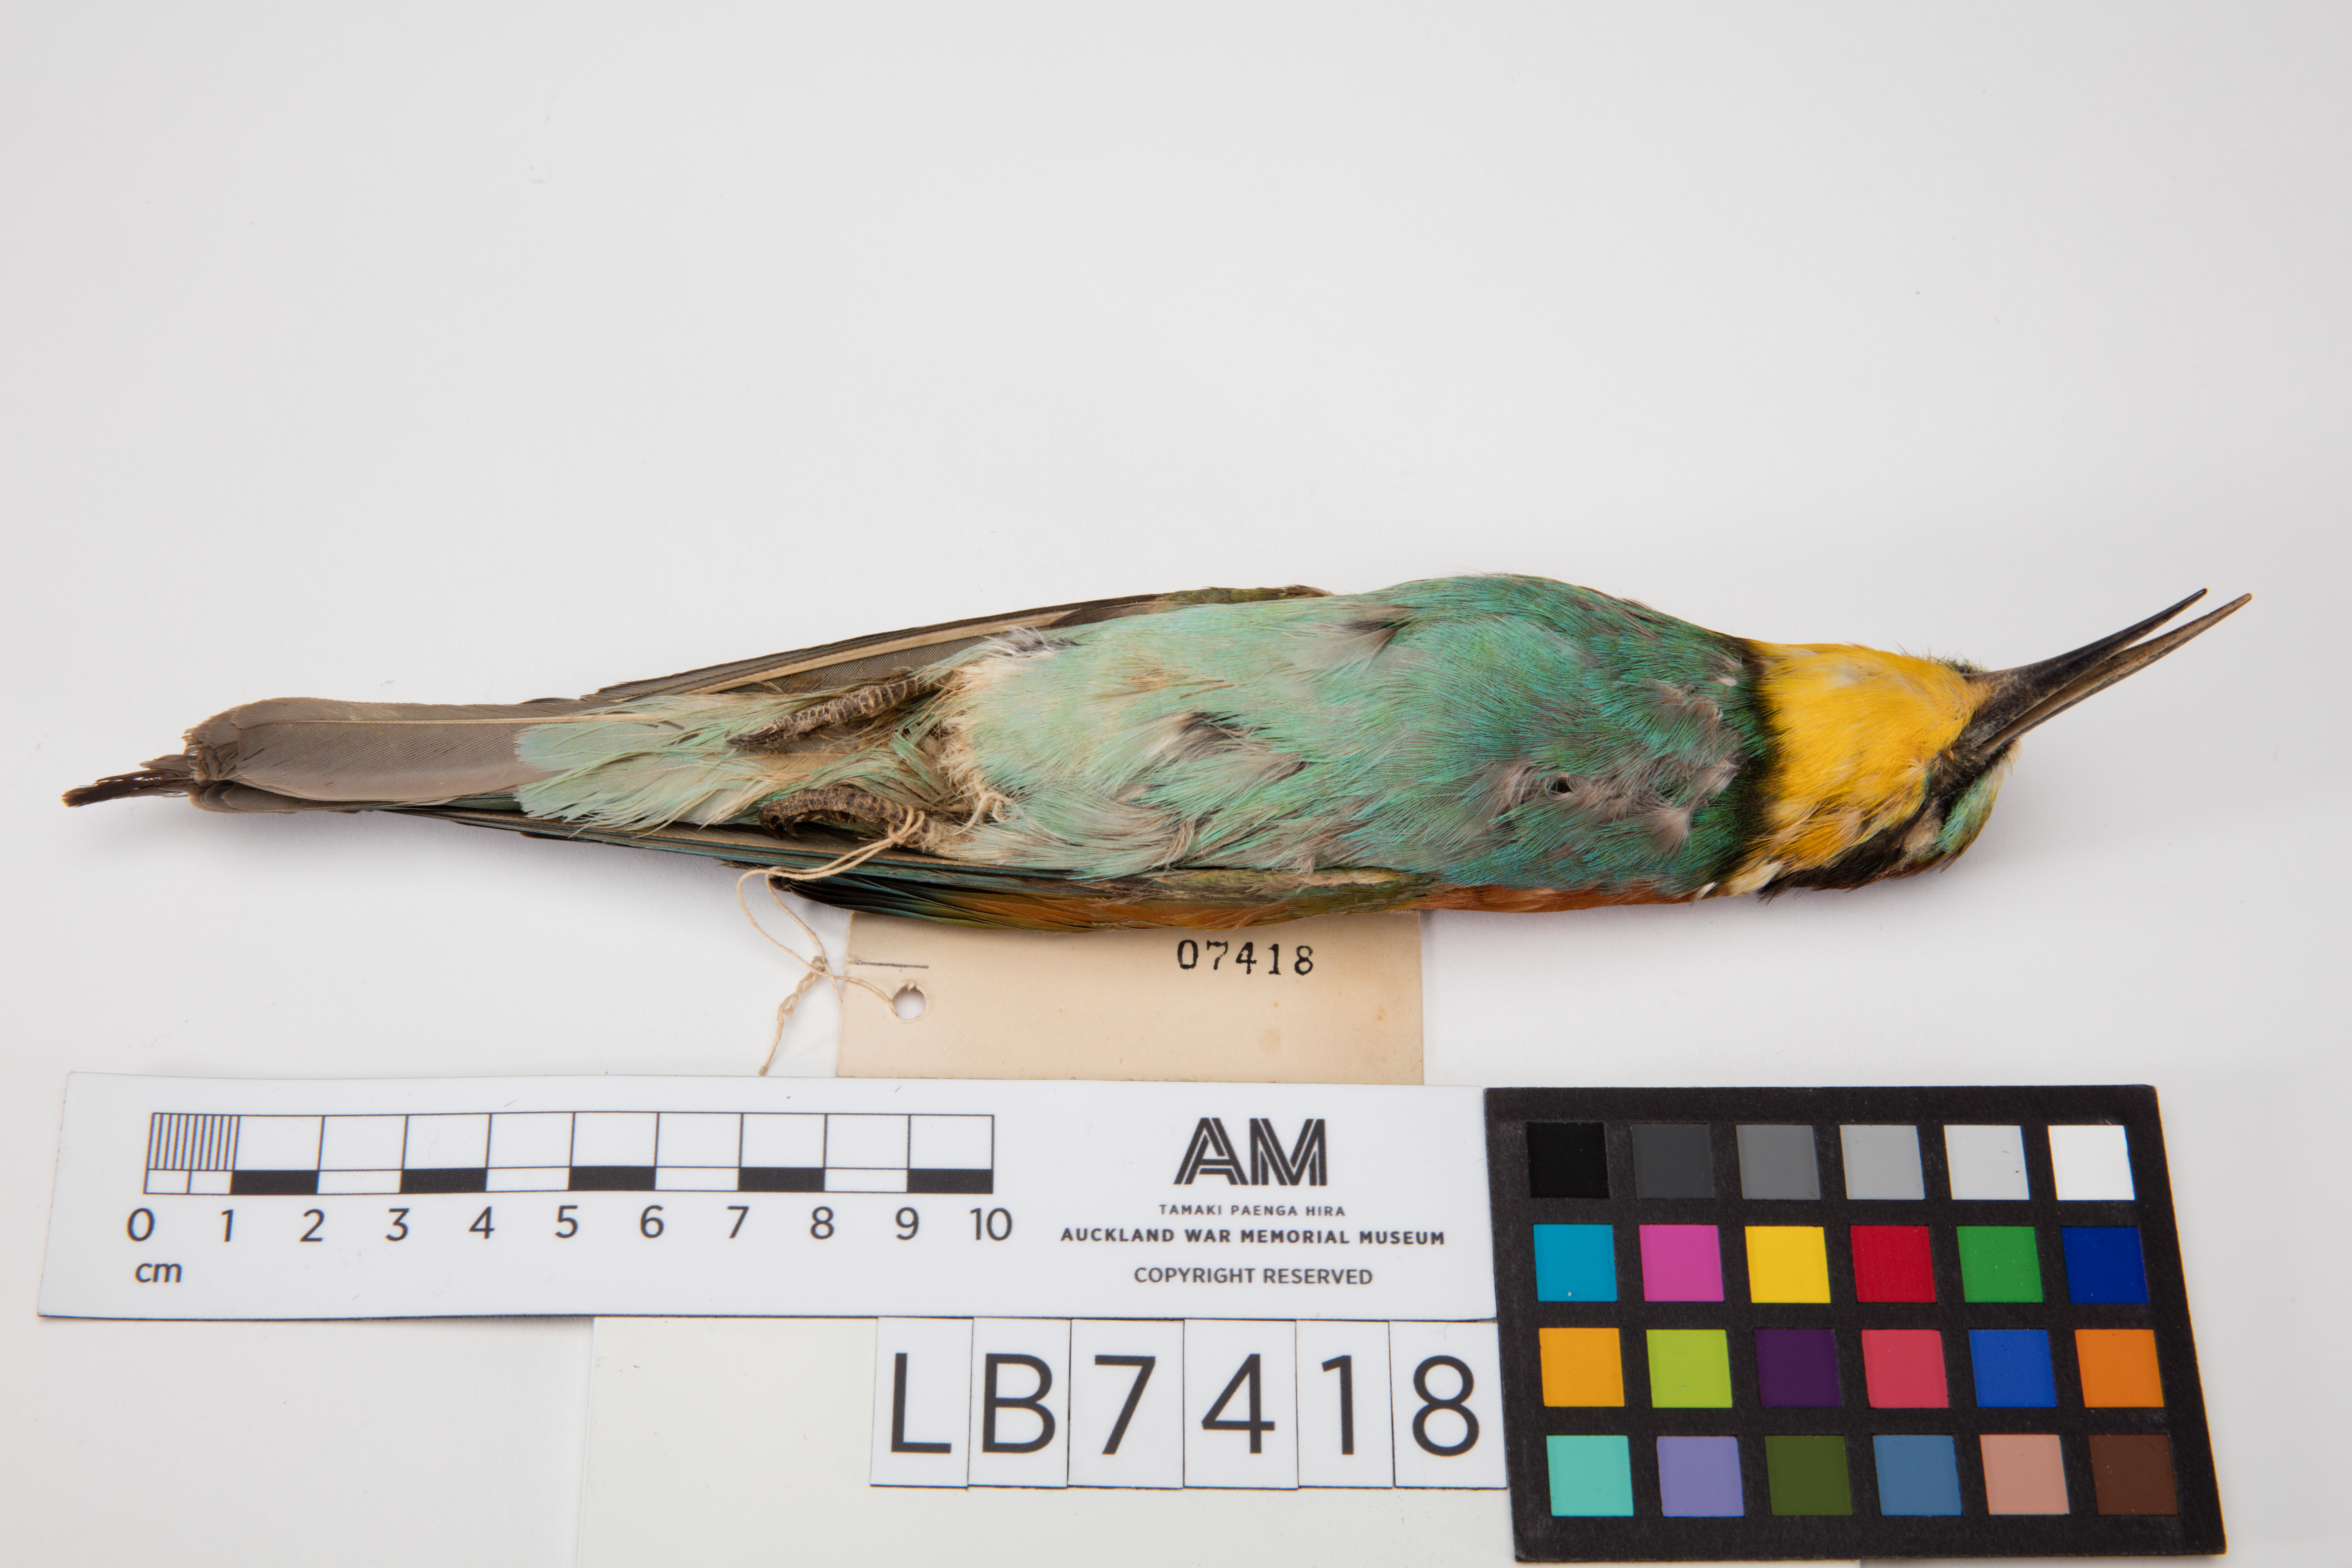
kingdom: Animalia
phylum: Chordata
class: Aves
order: Coraciiformes
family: Meropidae
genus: Merops
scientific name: Merops apiaster
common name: European bee-eater
